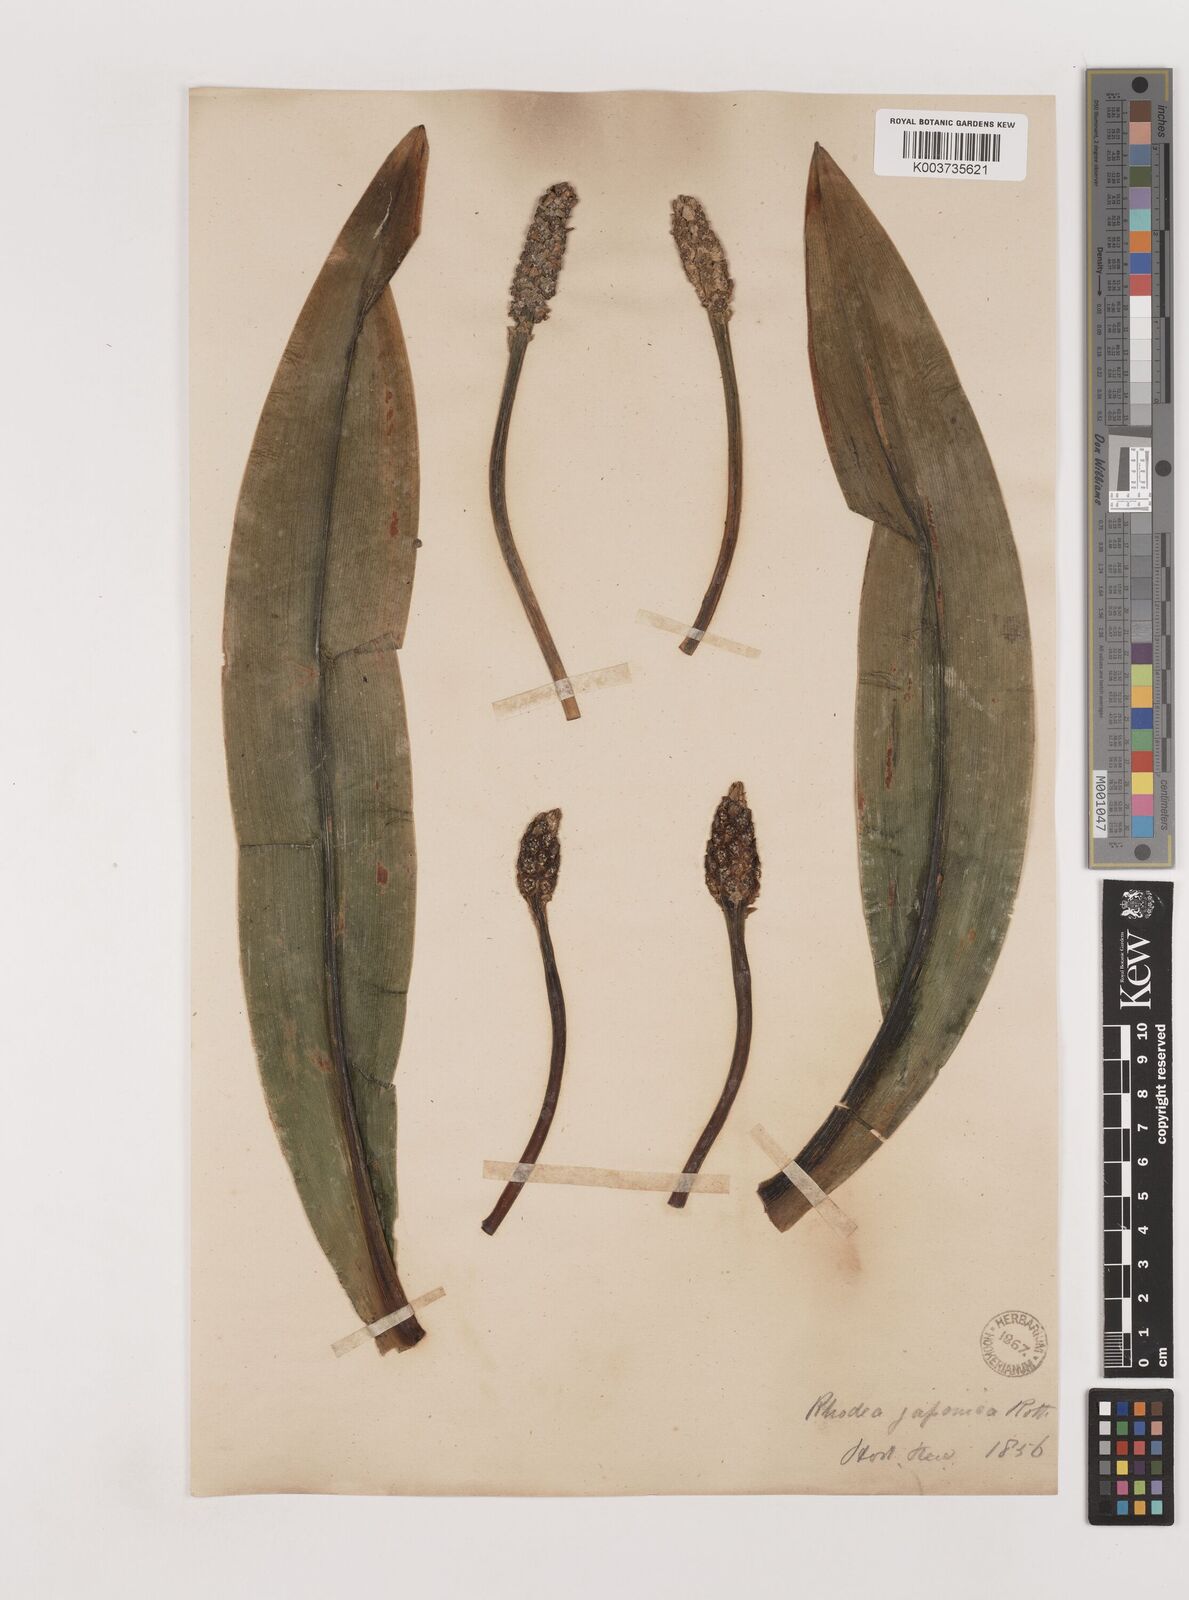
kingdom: Plantae
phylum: Tracheophyta
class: Liliopsida
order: Asparagales
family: Asparagaceae
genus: Rohdea
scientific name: Rohdea japonica
